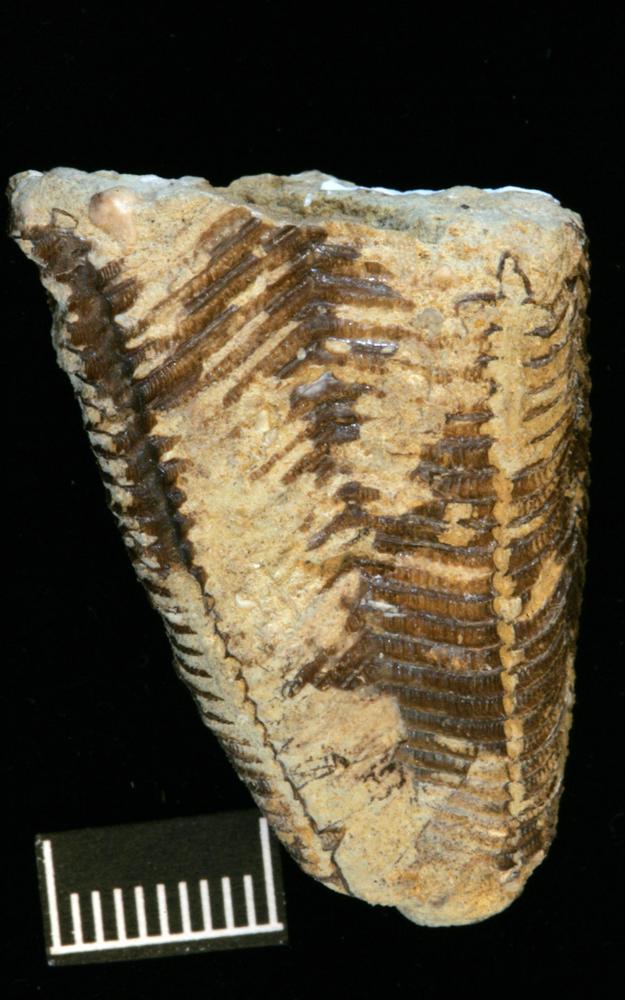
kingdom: Animalia
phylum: Cnidaria
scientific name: Cnidaria
